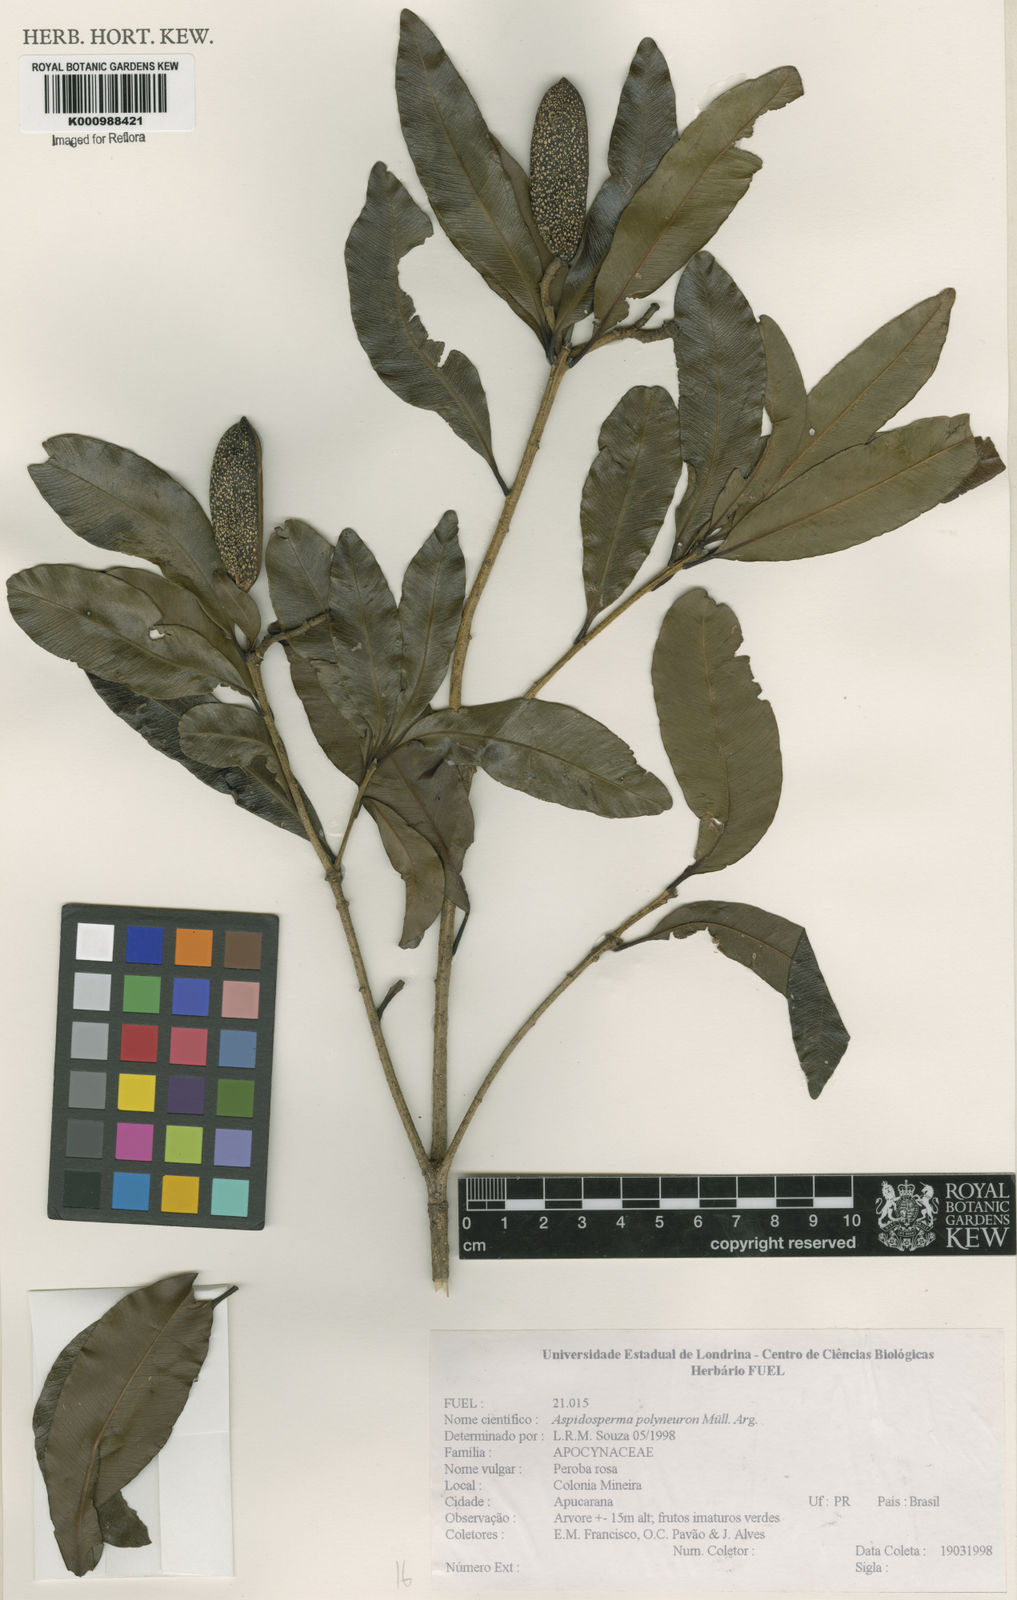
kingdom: Plantae
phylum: Tracheophyta
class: Magnoliopsida
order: Gentianales
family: Apocynaceae
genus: Aspidosperma
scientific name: Aspidosperma
